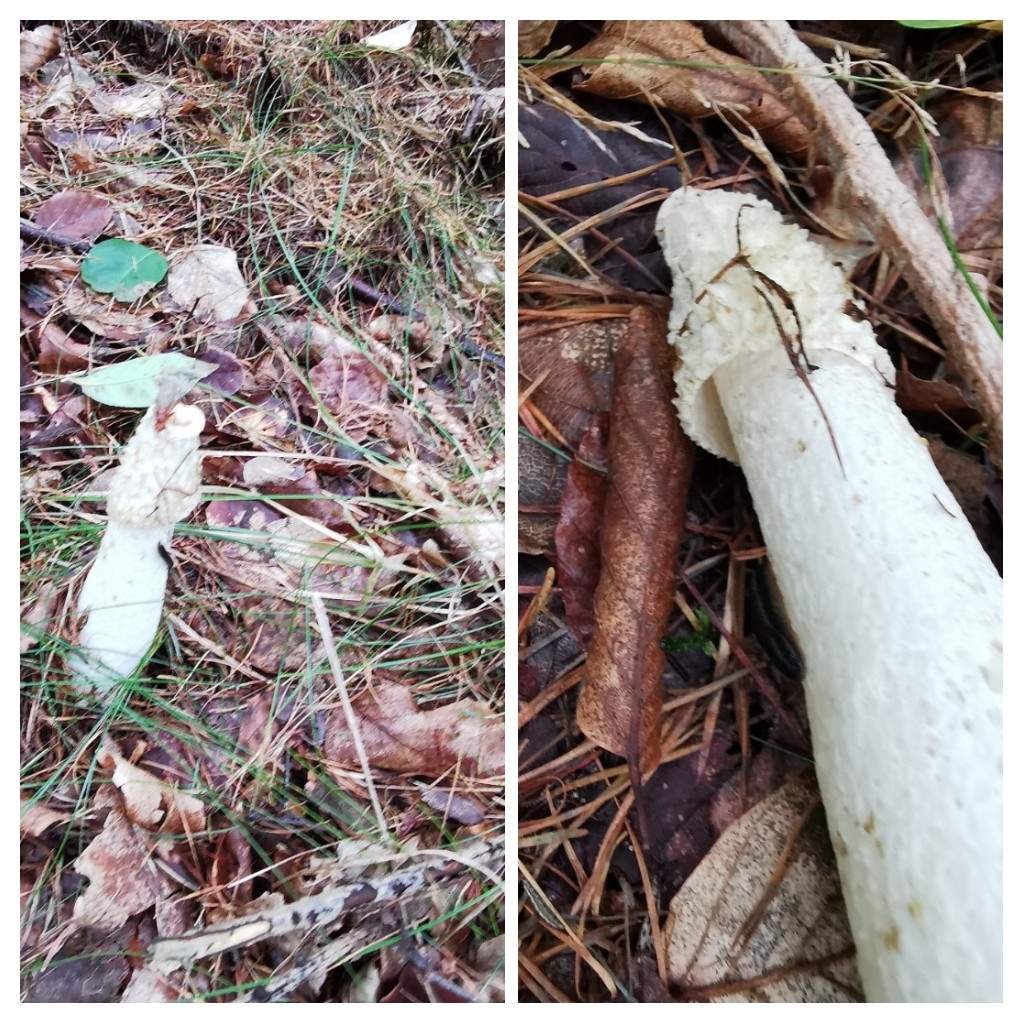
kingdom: Fungi
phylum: Basidiomycota
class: Agaricomycetes
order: Phallales
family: Phallaceae
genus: Phallus
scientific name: Phallus impudicus
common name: almindelig stinksvamp
